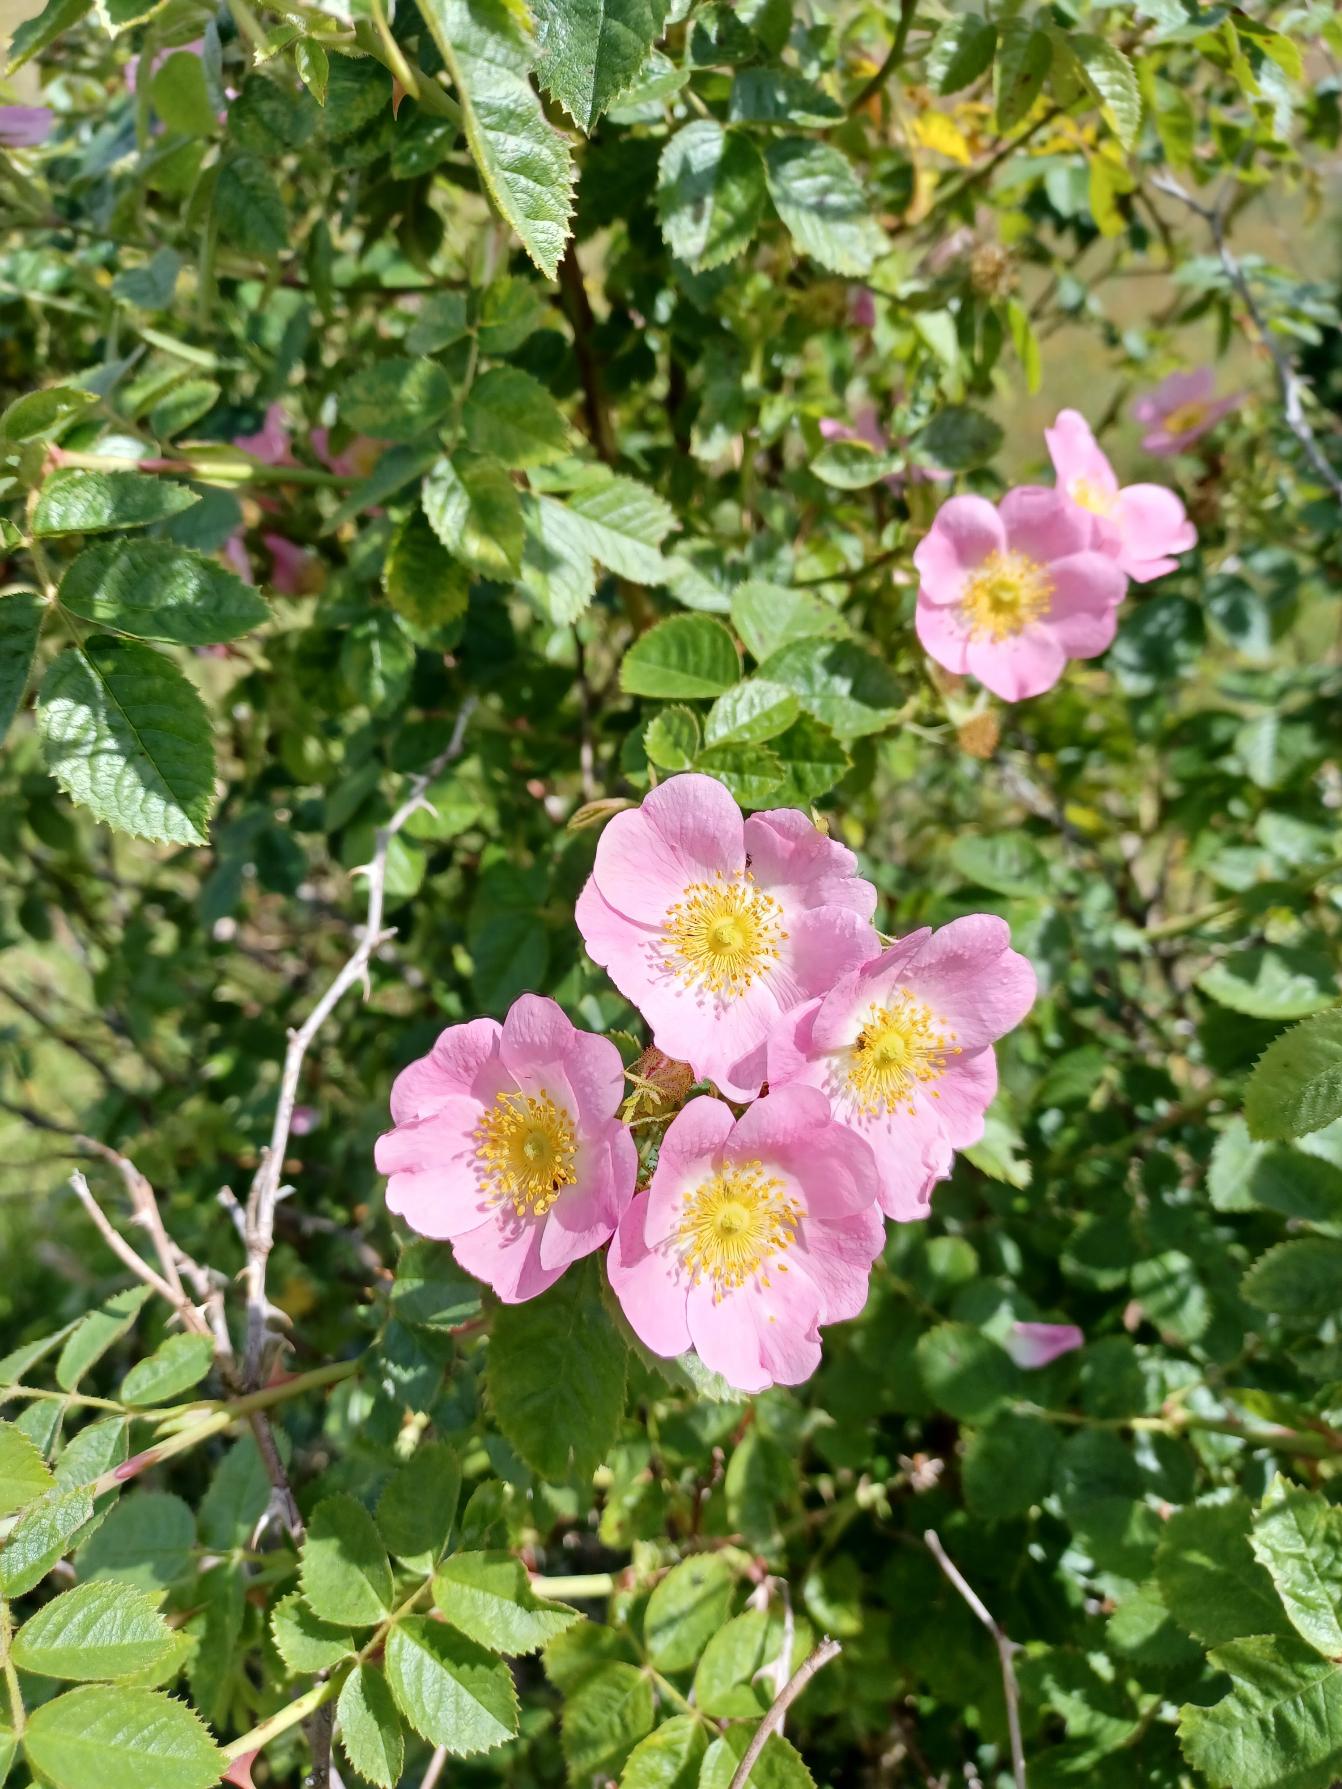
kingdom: Plantae
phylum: Tracheophyta
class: Magnoliopsida
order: Rosales
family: Rosaceae
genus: Rosa
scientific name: Rosa rubiginosa
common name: Æble-rose
